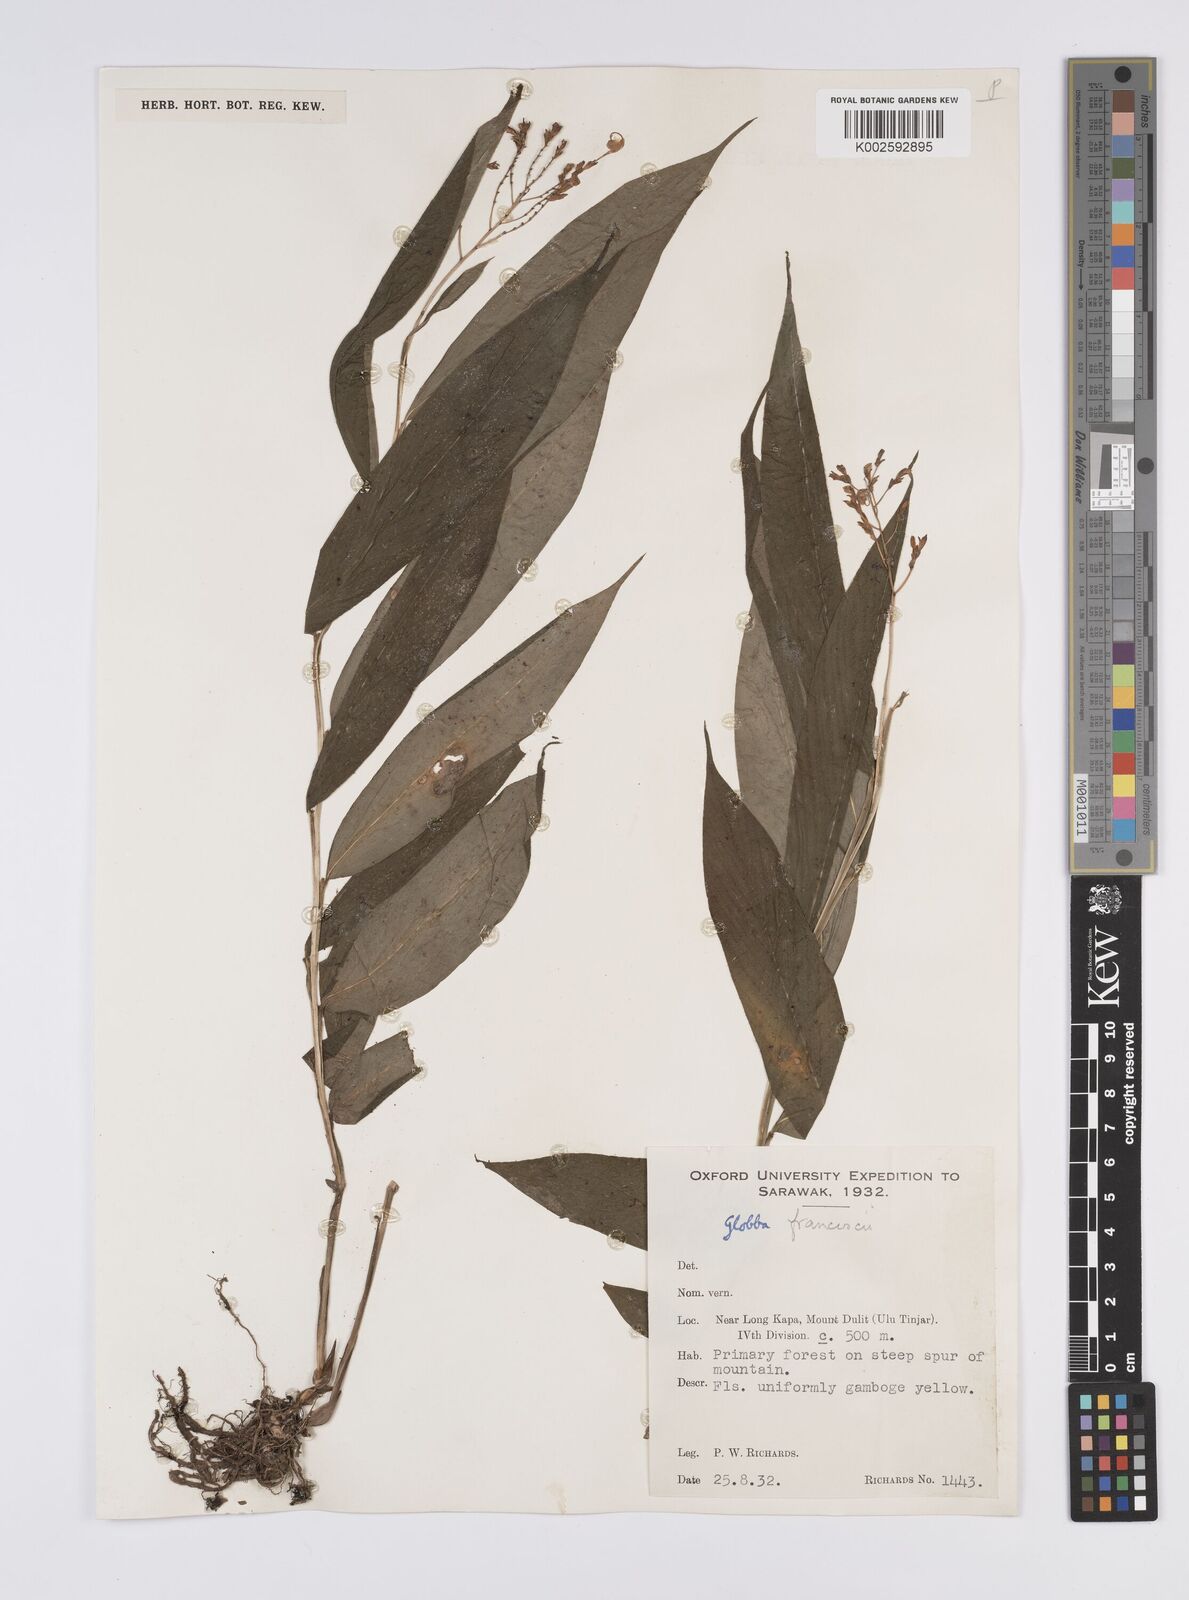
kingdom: Plantae
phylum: Tracheophyta
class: Liliopsida
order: Zingiberales
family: Zingiberaceae
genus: Globba
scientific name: Globba francisci
